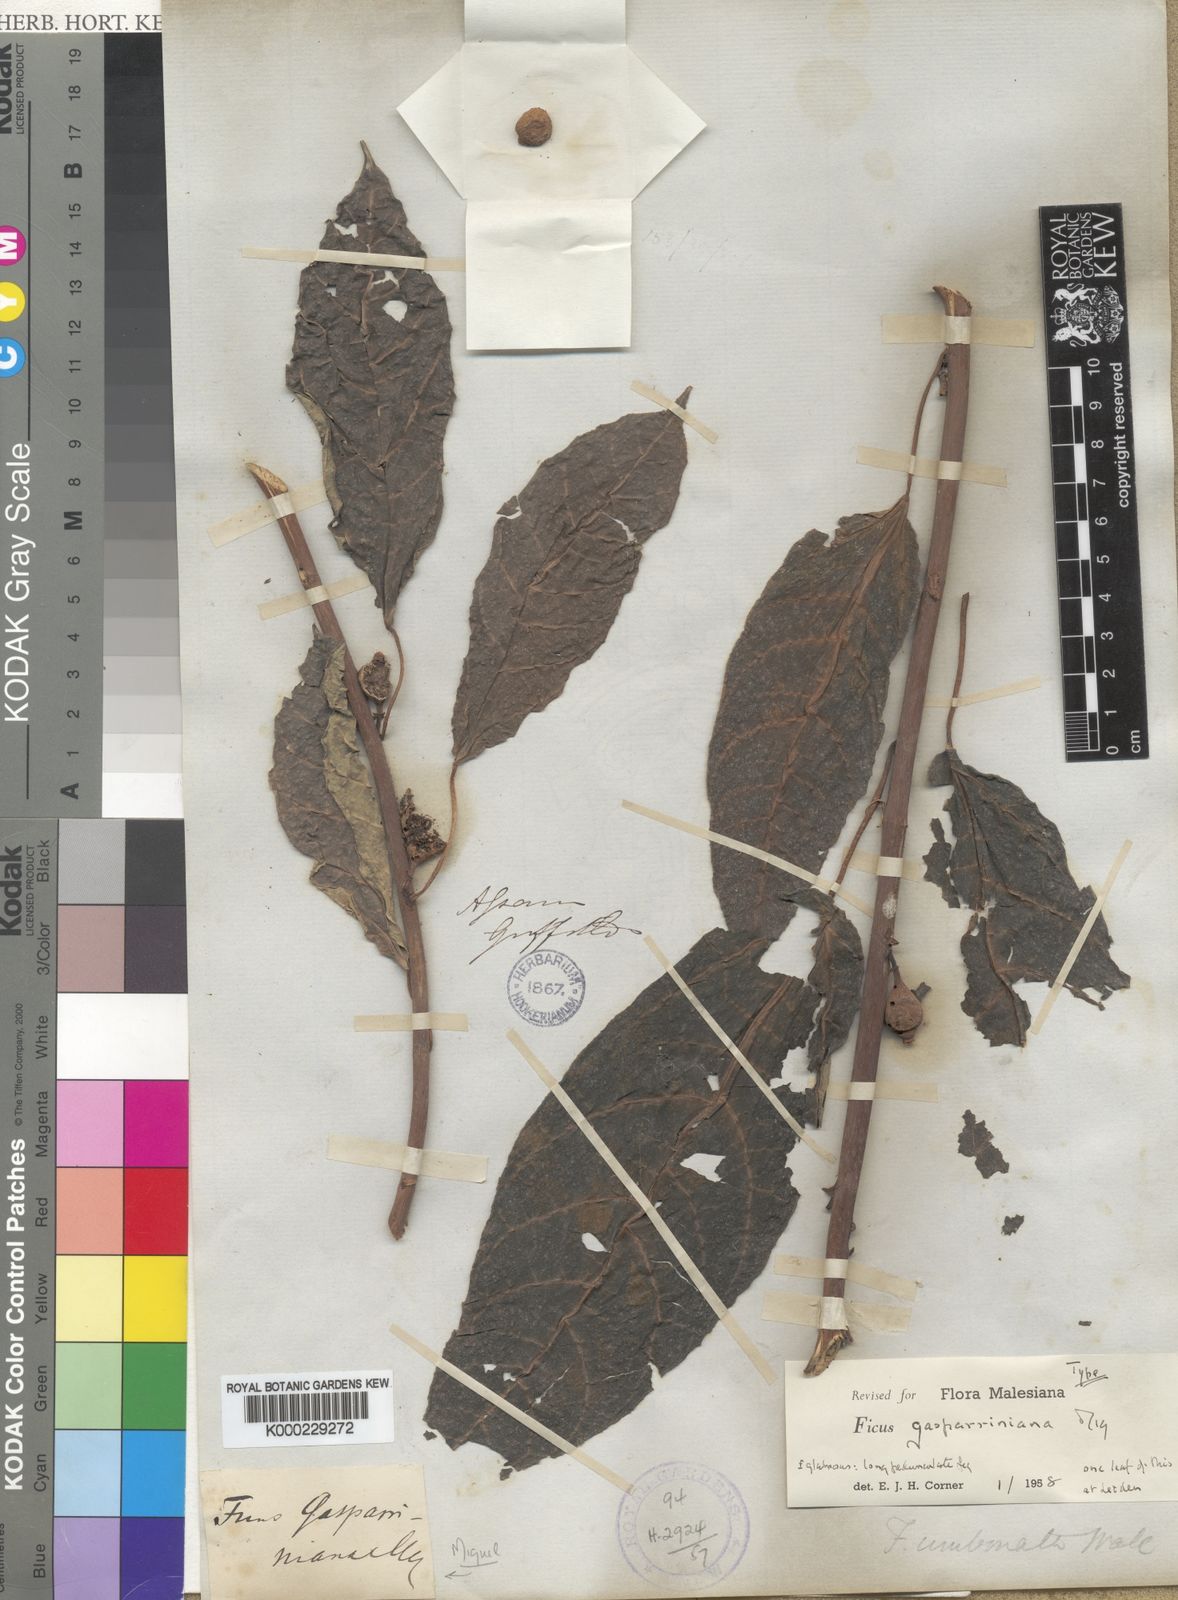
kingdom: Plantae
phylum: Tracheophyta
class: Magnoliopsida
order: Rosales
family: Moraceae
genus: Ficus
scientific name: Ficus neriifolia
